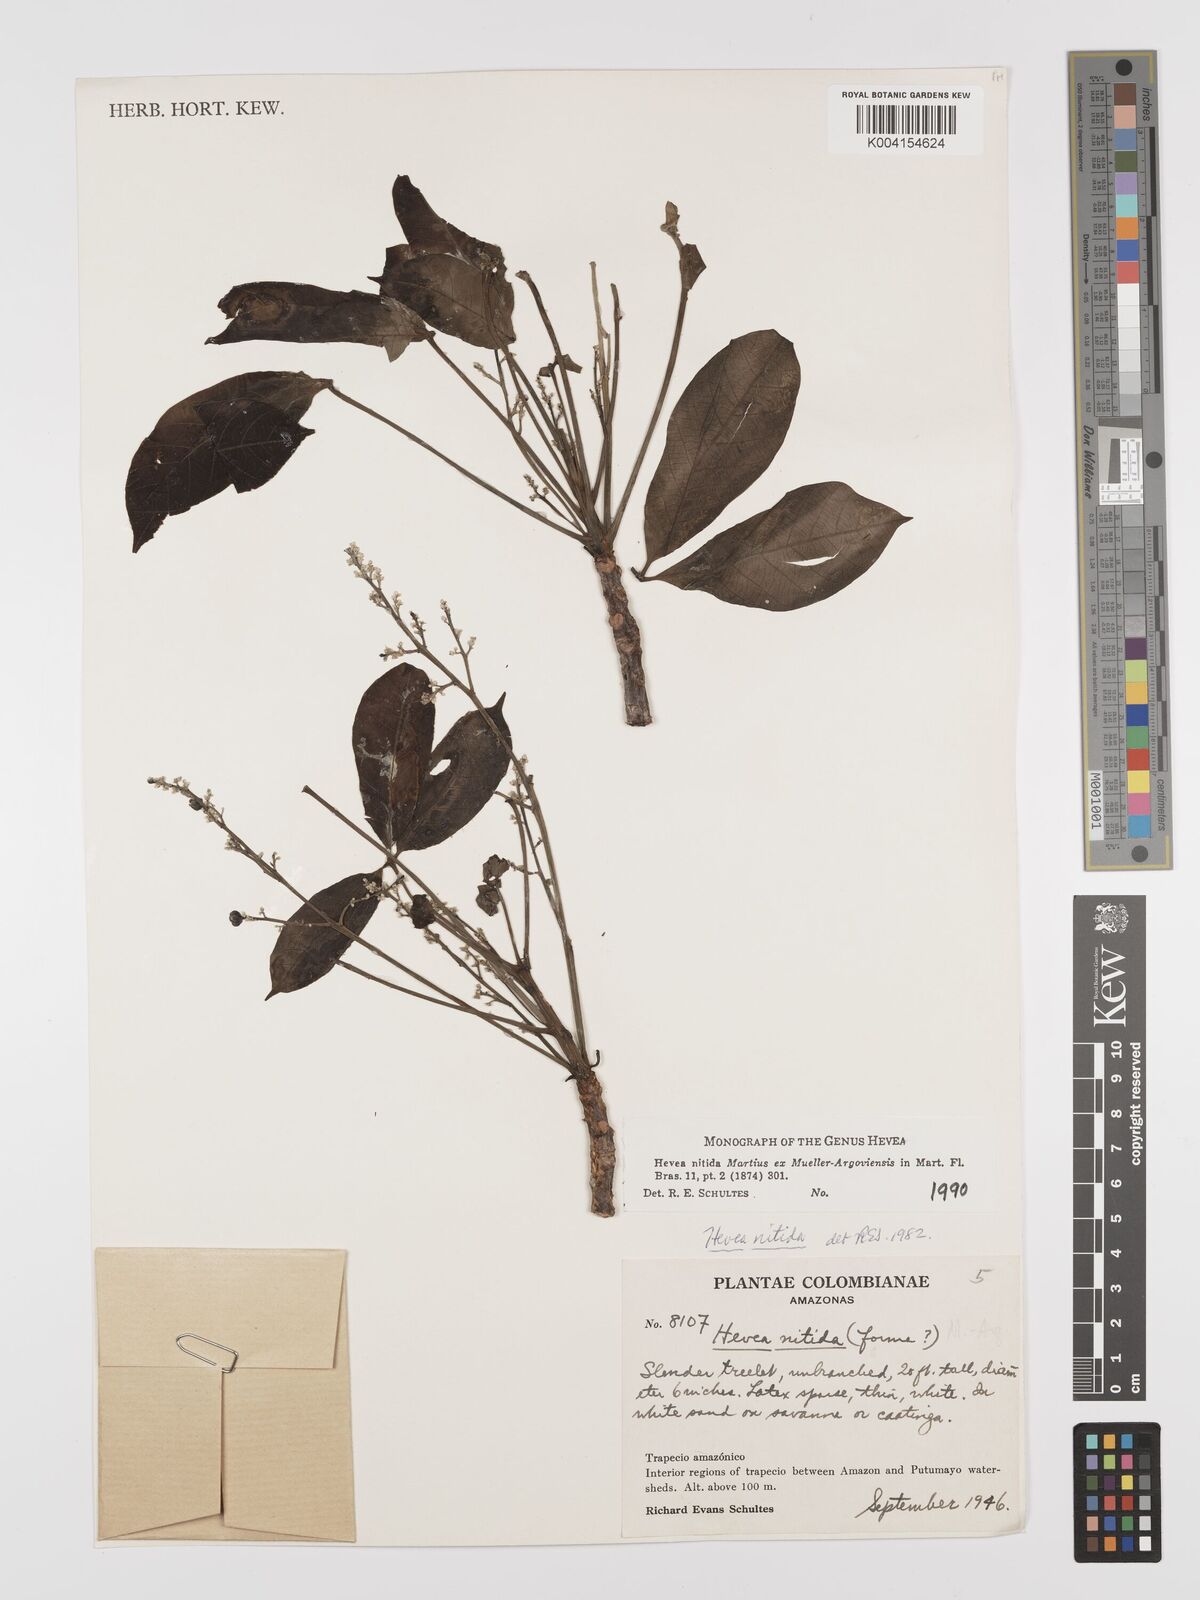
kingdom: Plantae
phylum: Tracheophyta
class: Magnoliopsida
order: Malpighiales
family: Euphorbiaceae
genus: Hevea
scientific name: Hevea nitida
